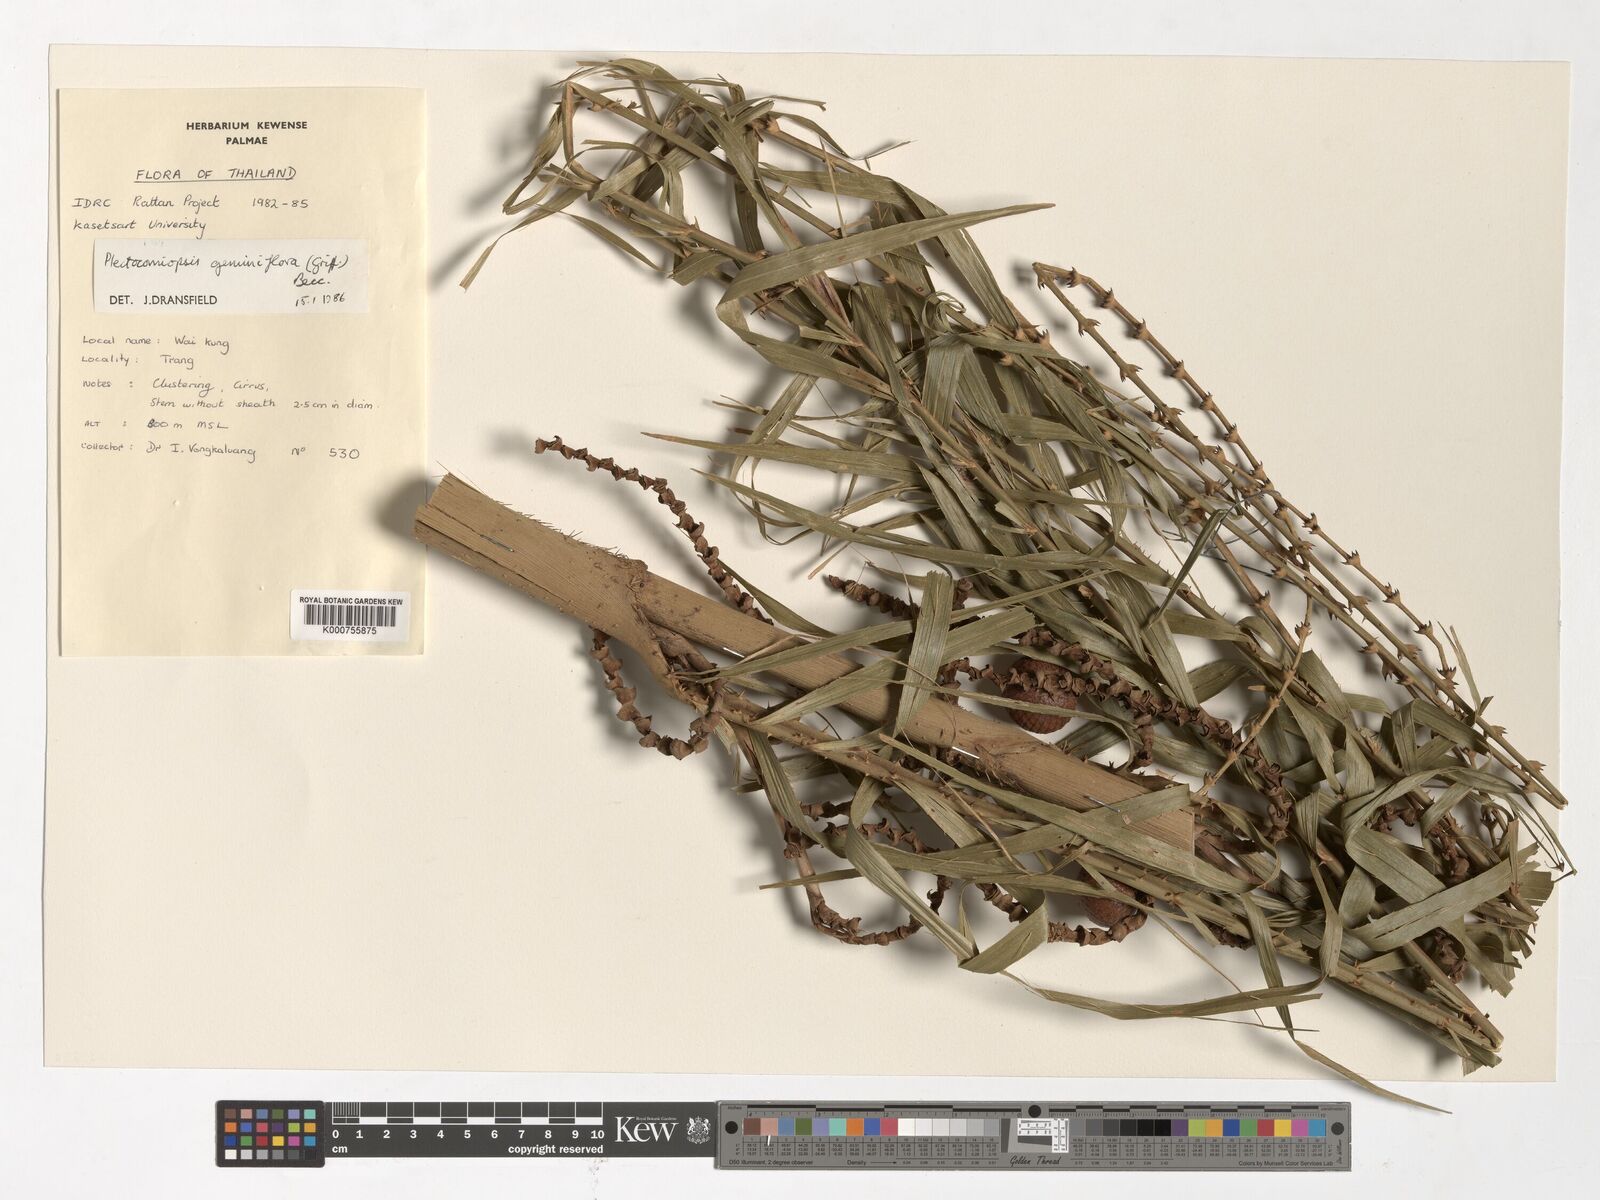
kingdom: Plantae
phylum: Tracheophyta
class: Liliopsida
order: Arecales
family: Arecaceae
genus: Plectocomiopsis
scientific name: Plectocomiopsis geminiflora
